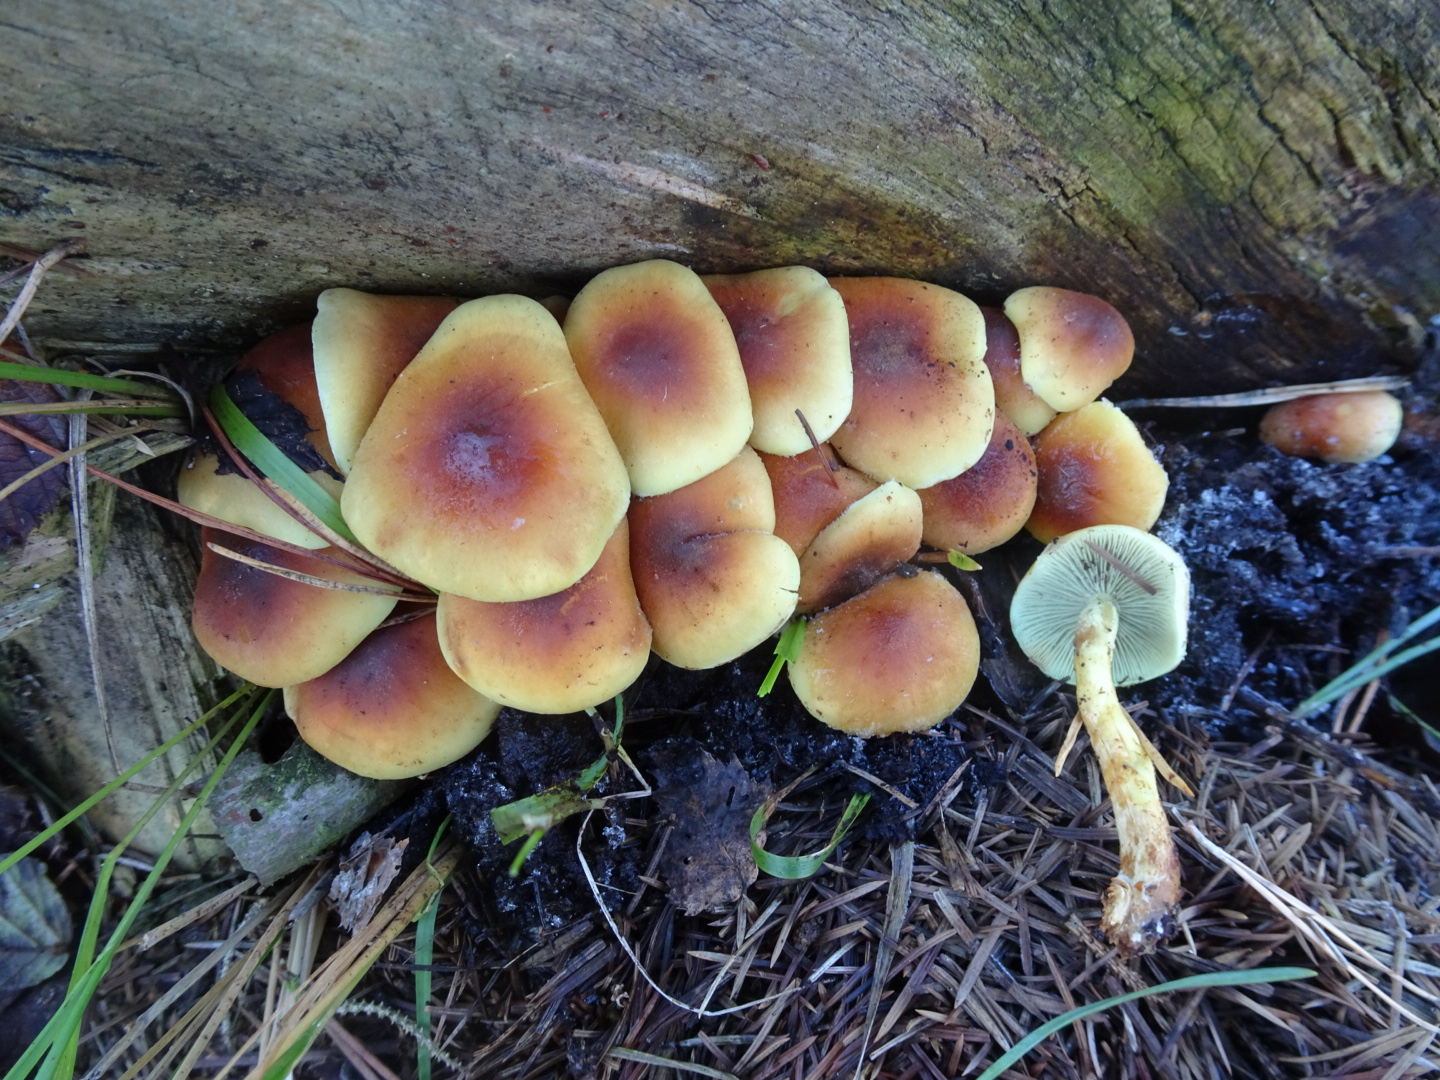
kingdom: Fungi
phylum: Basidiomycota
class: Agaricomycetes
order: Agaricales
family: Strophariaceae
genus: Hypholoma
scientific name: Hypholoma fasciculare
